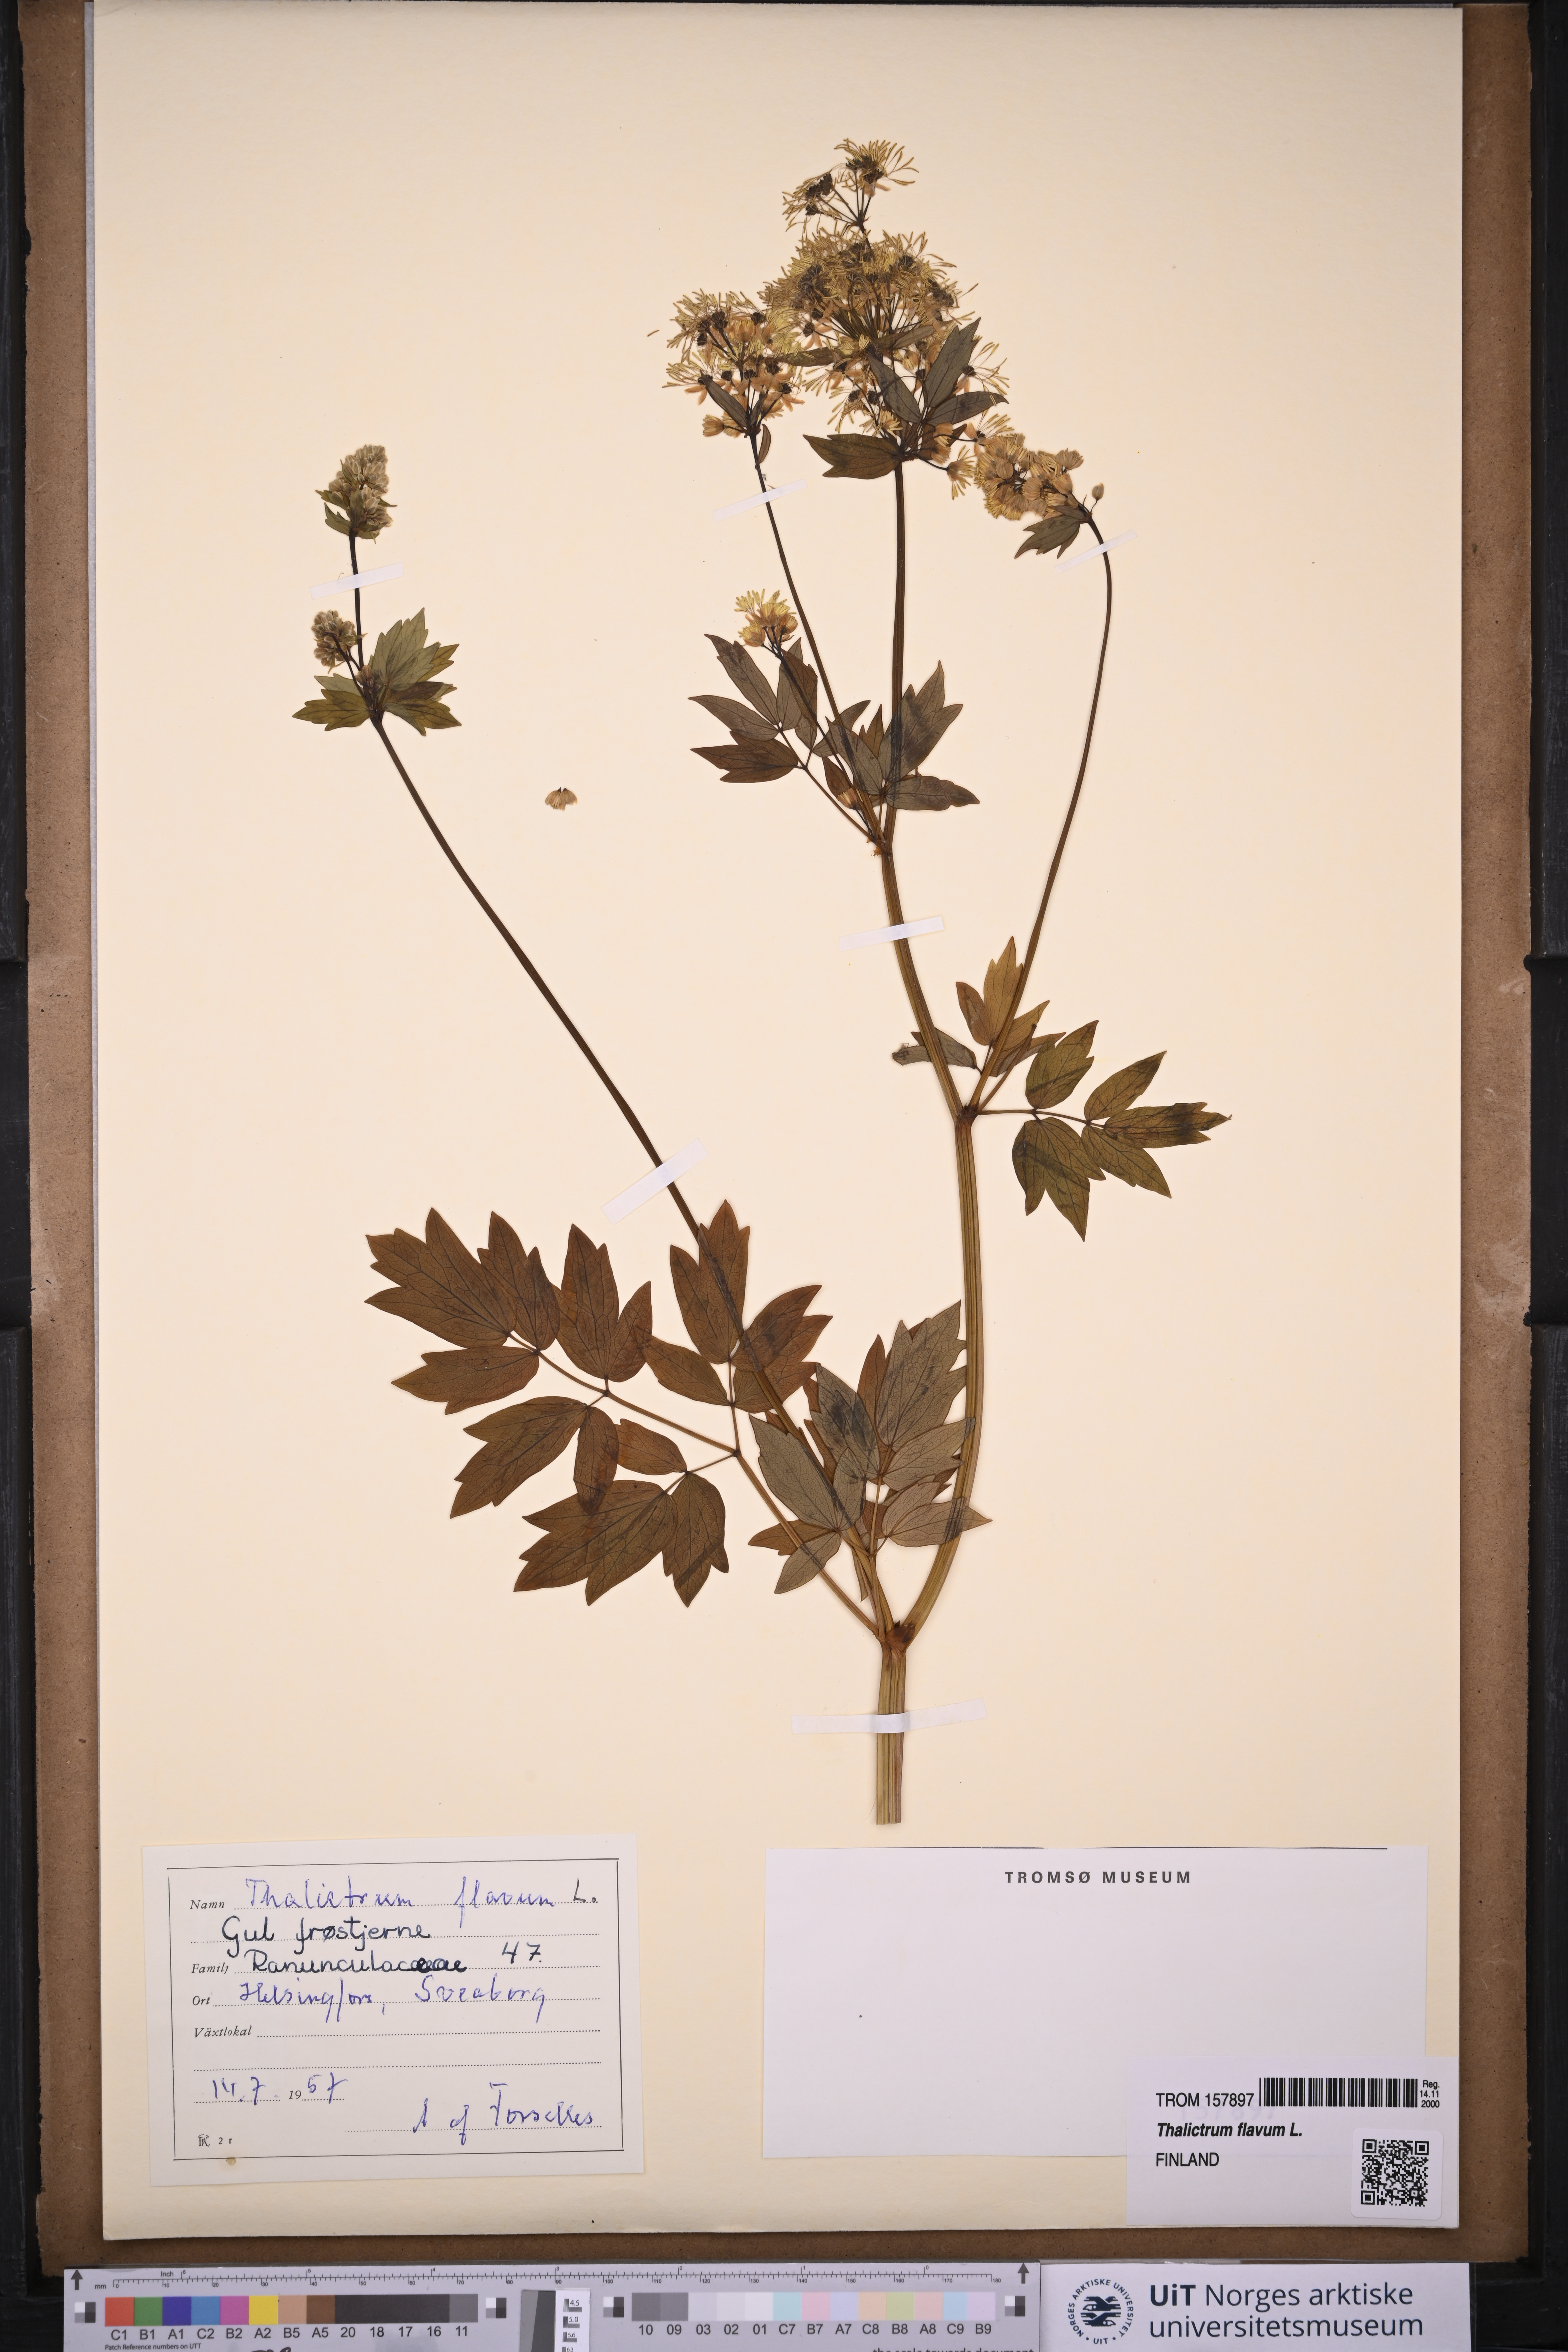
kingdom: Plantae
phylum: Tracheophyta
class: Magnoliopsida
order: Ranunculales
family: Ranunculaceae
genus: Thalictrum
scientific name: Thalictrum flavum
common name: Common meadow-rue
